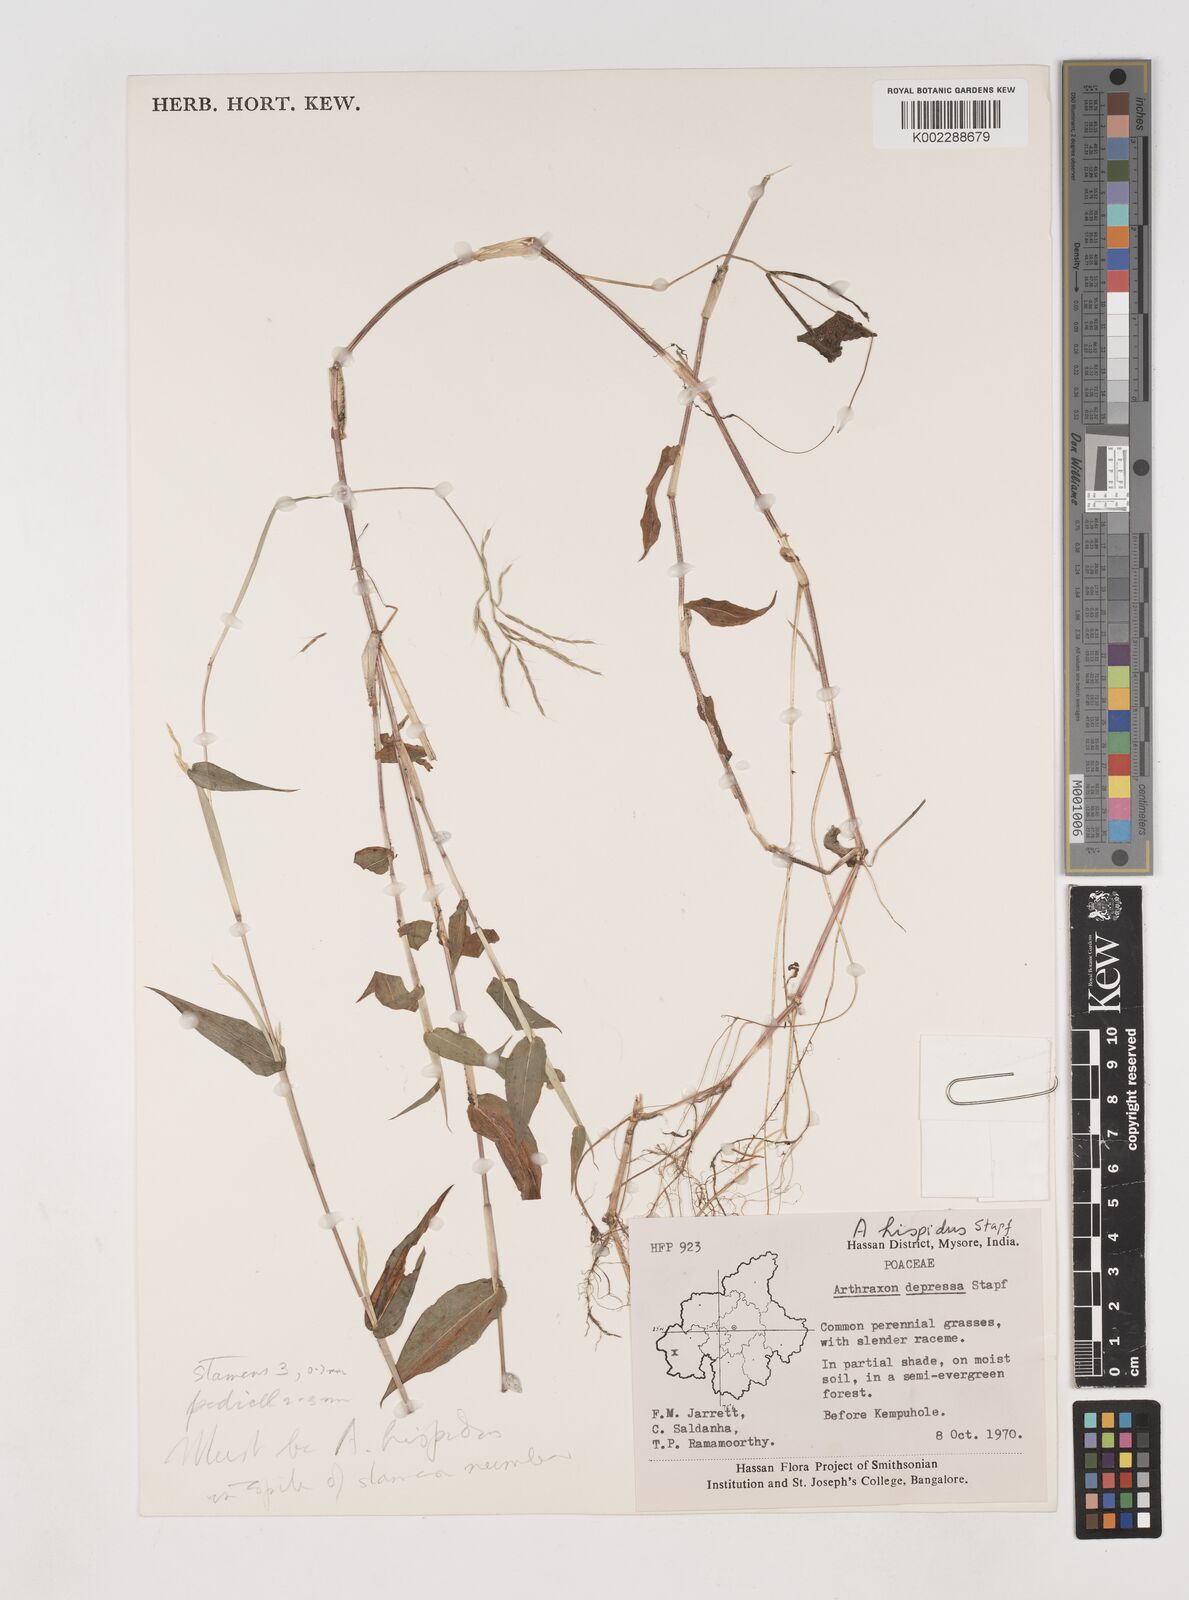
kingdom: Plantae
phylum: Tracheophyta
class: Liliopsida
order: Poales
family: Poaceae
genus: Arthraxon
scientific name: Arthraxon nudus
